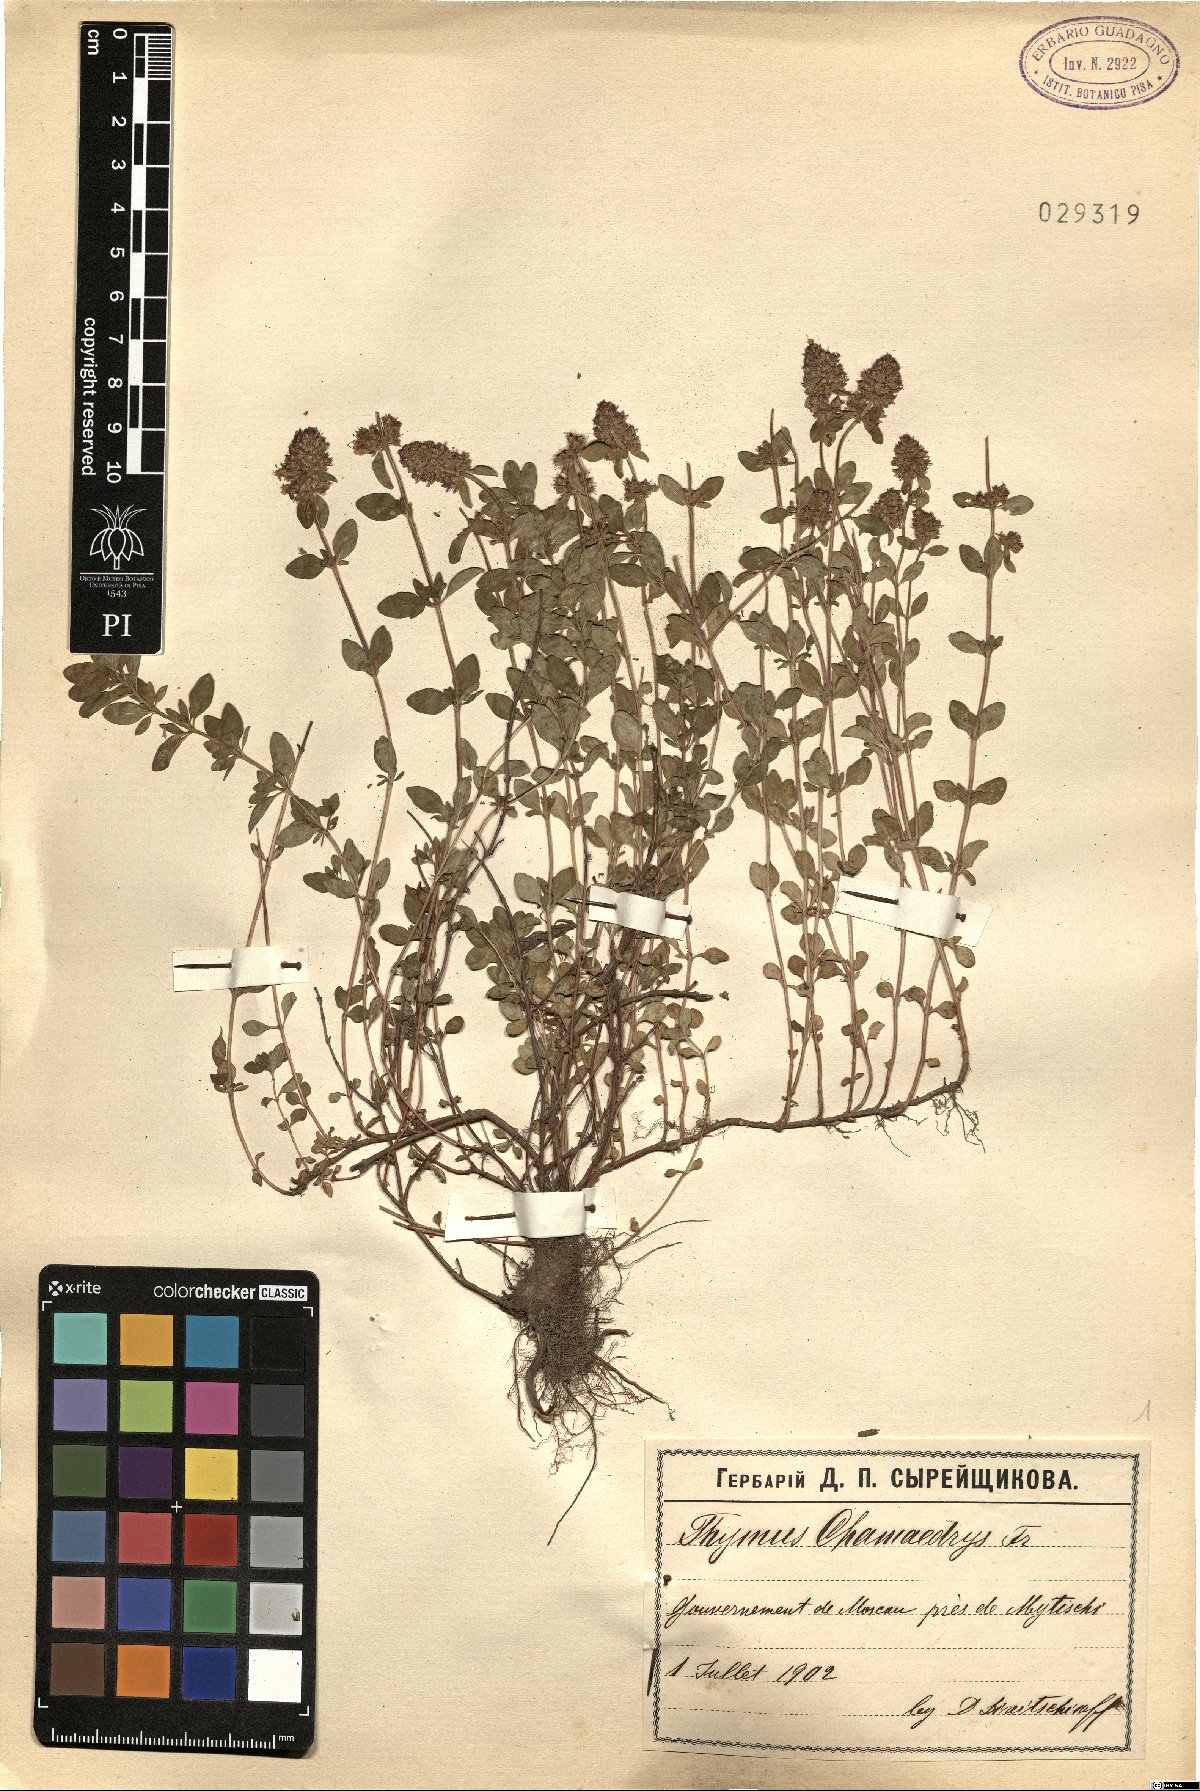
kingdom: Plantae
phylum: Tracheophyta
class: Magnoliopsida
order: Lamiales
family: Lamiaceae
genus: Thymus
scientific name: Thymus pulegioides
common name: Large thyme
